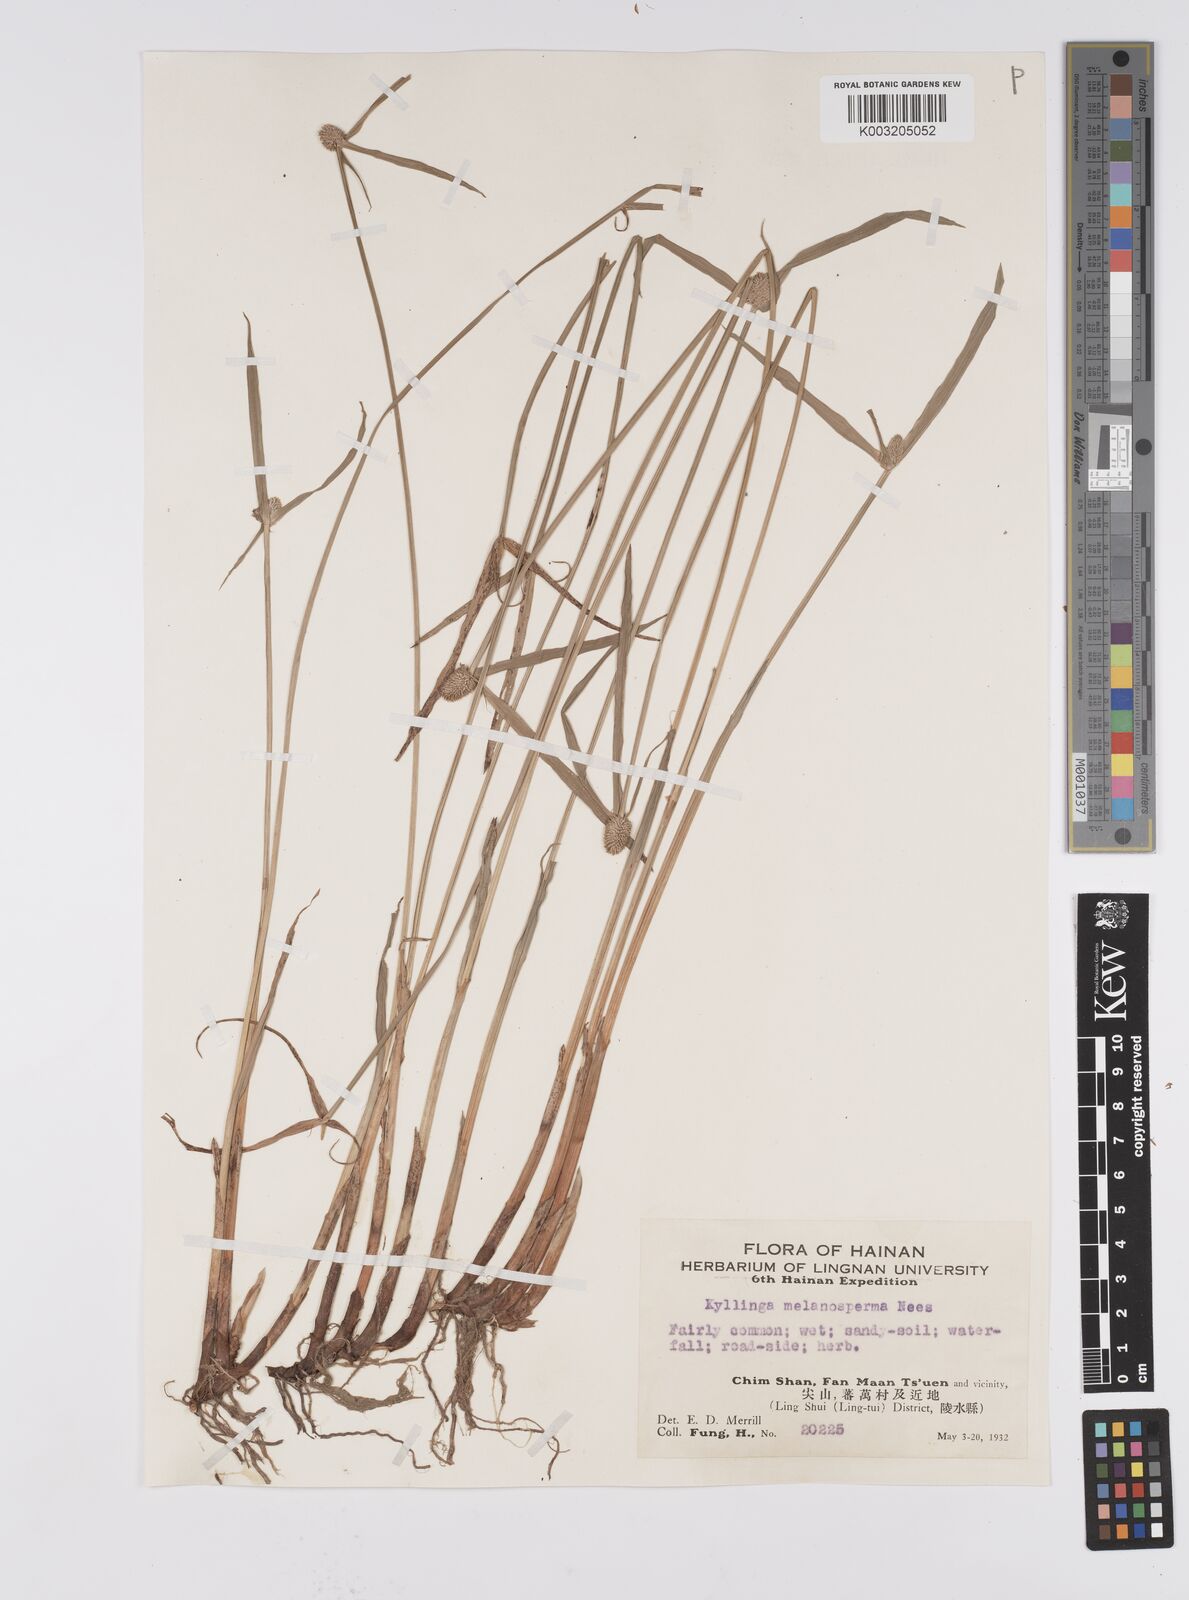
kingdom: Plantae
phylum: Tracheophyta
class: Liliopsida
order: Poales
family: Cyperaceae
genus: Cyperus
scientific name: Cyperus melanospermus
